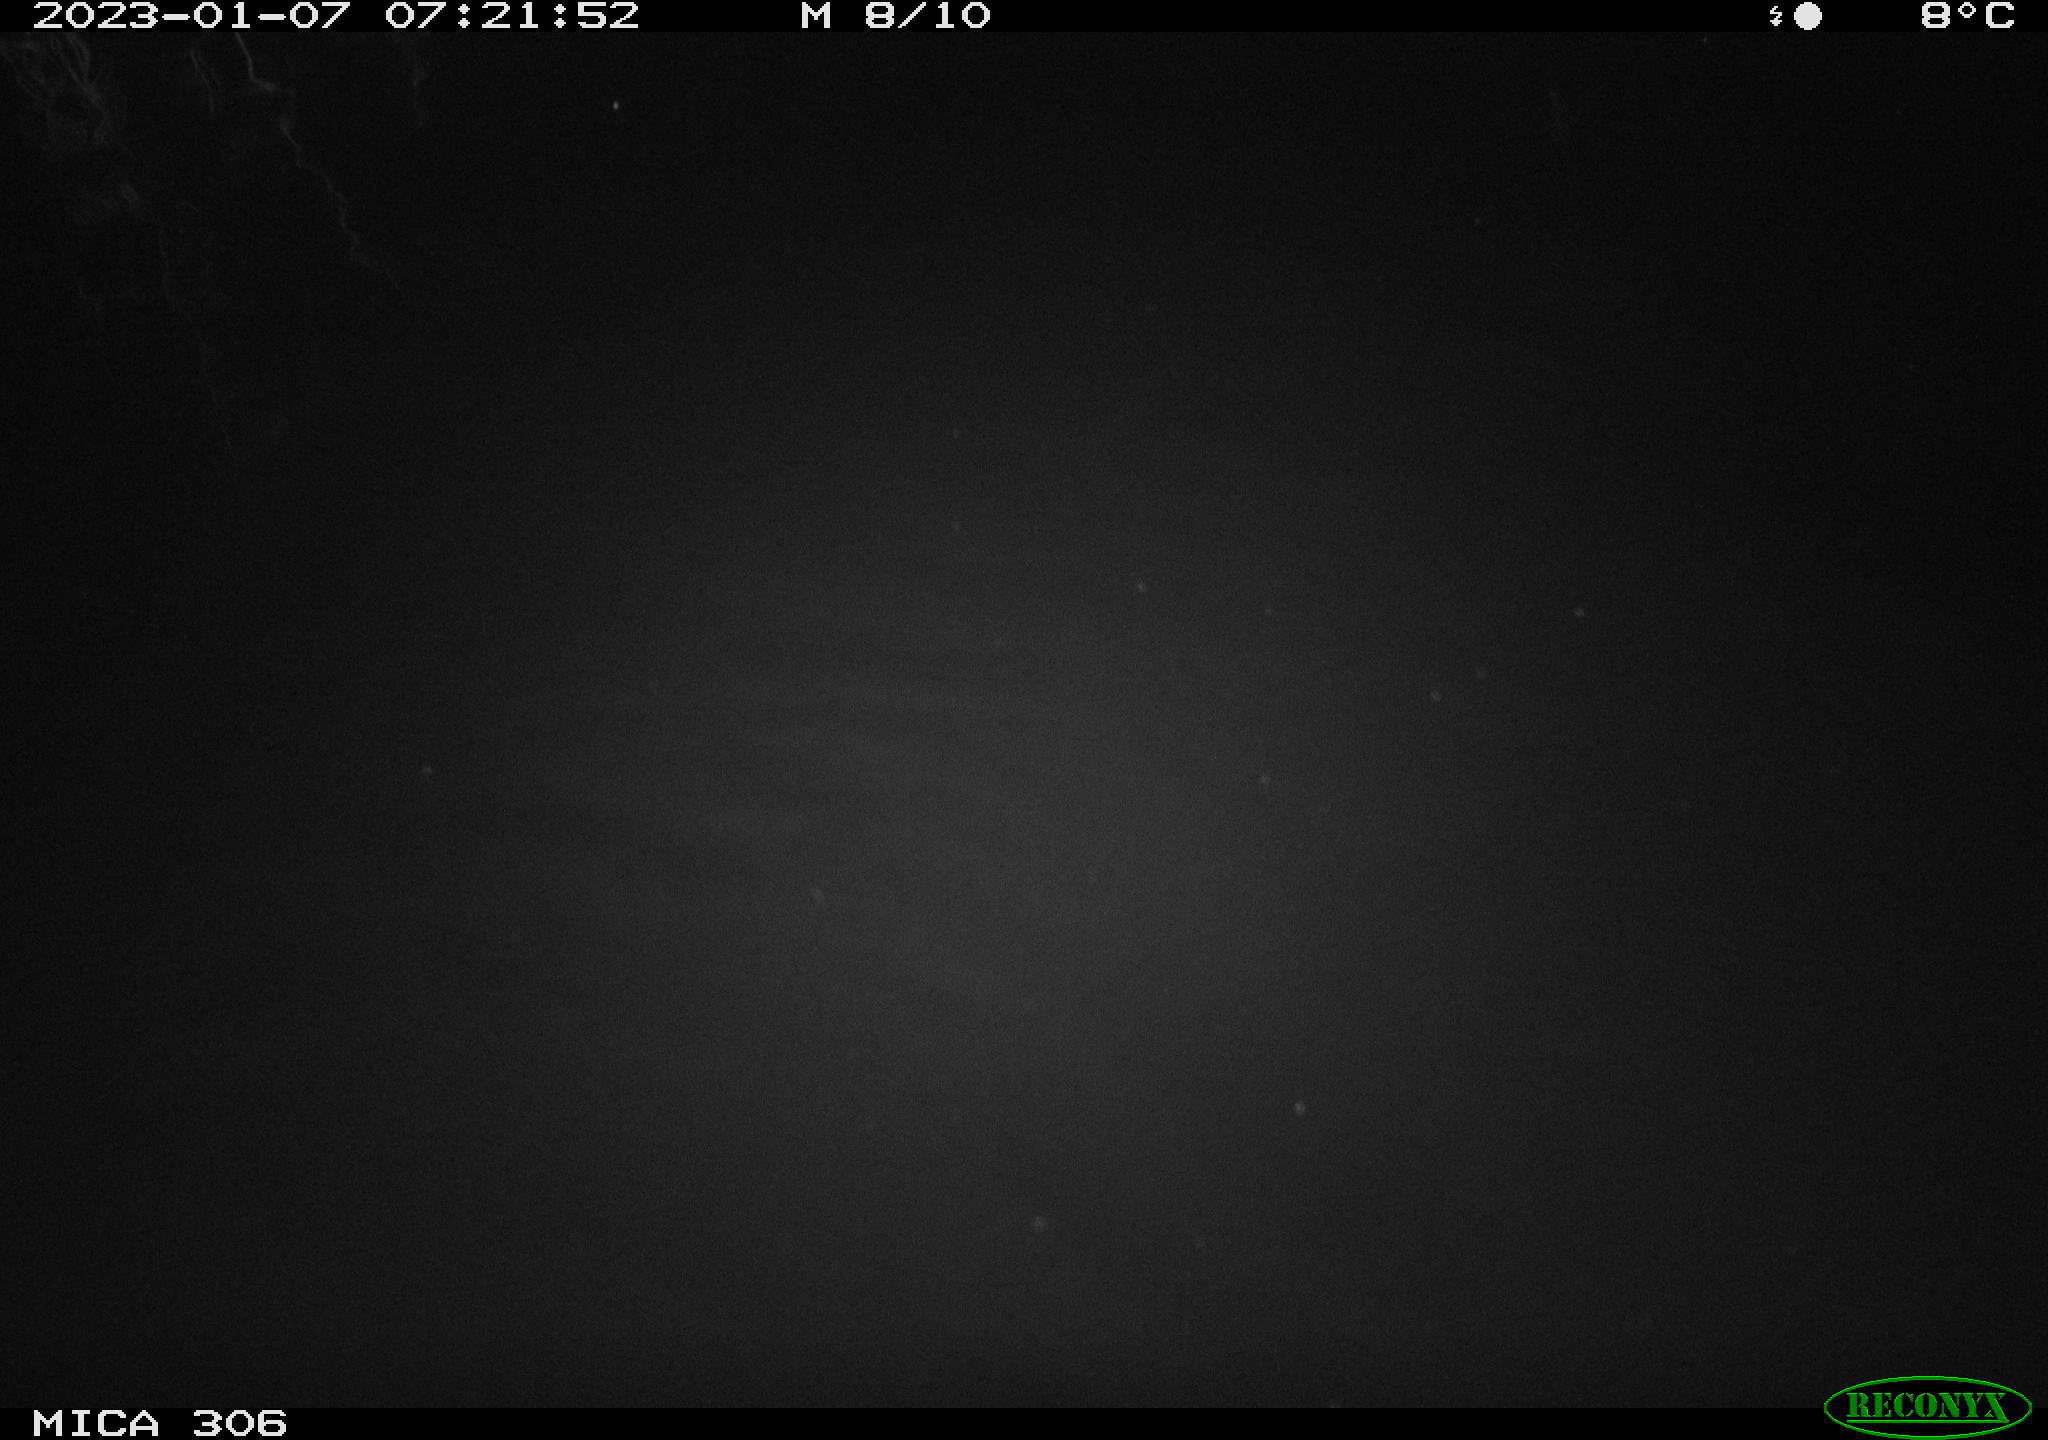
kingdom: Animalia
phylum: Chordata
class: Mammalia
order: Rodentia
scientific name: Rodentia
